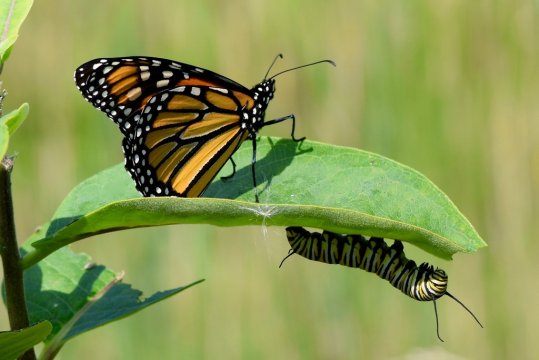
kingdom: Animalia
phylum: Arthropoda
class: Insecta
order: Lepidoptera
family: Nymphalidae
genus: Danaus
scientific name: Danaus plexippus
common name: Monarch
